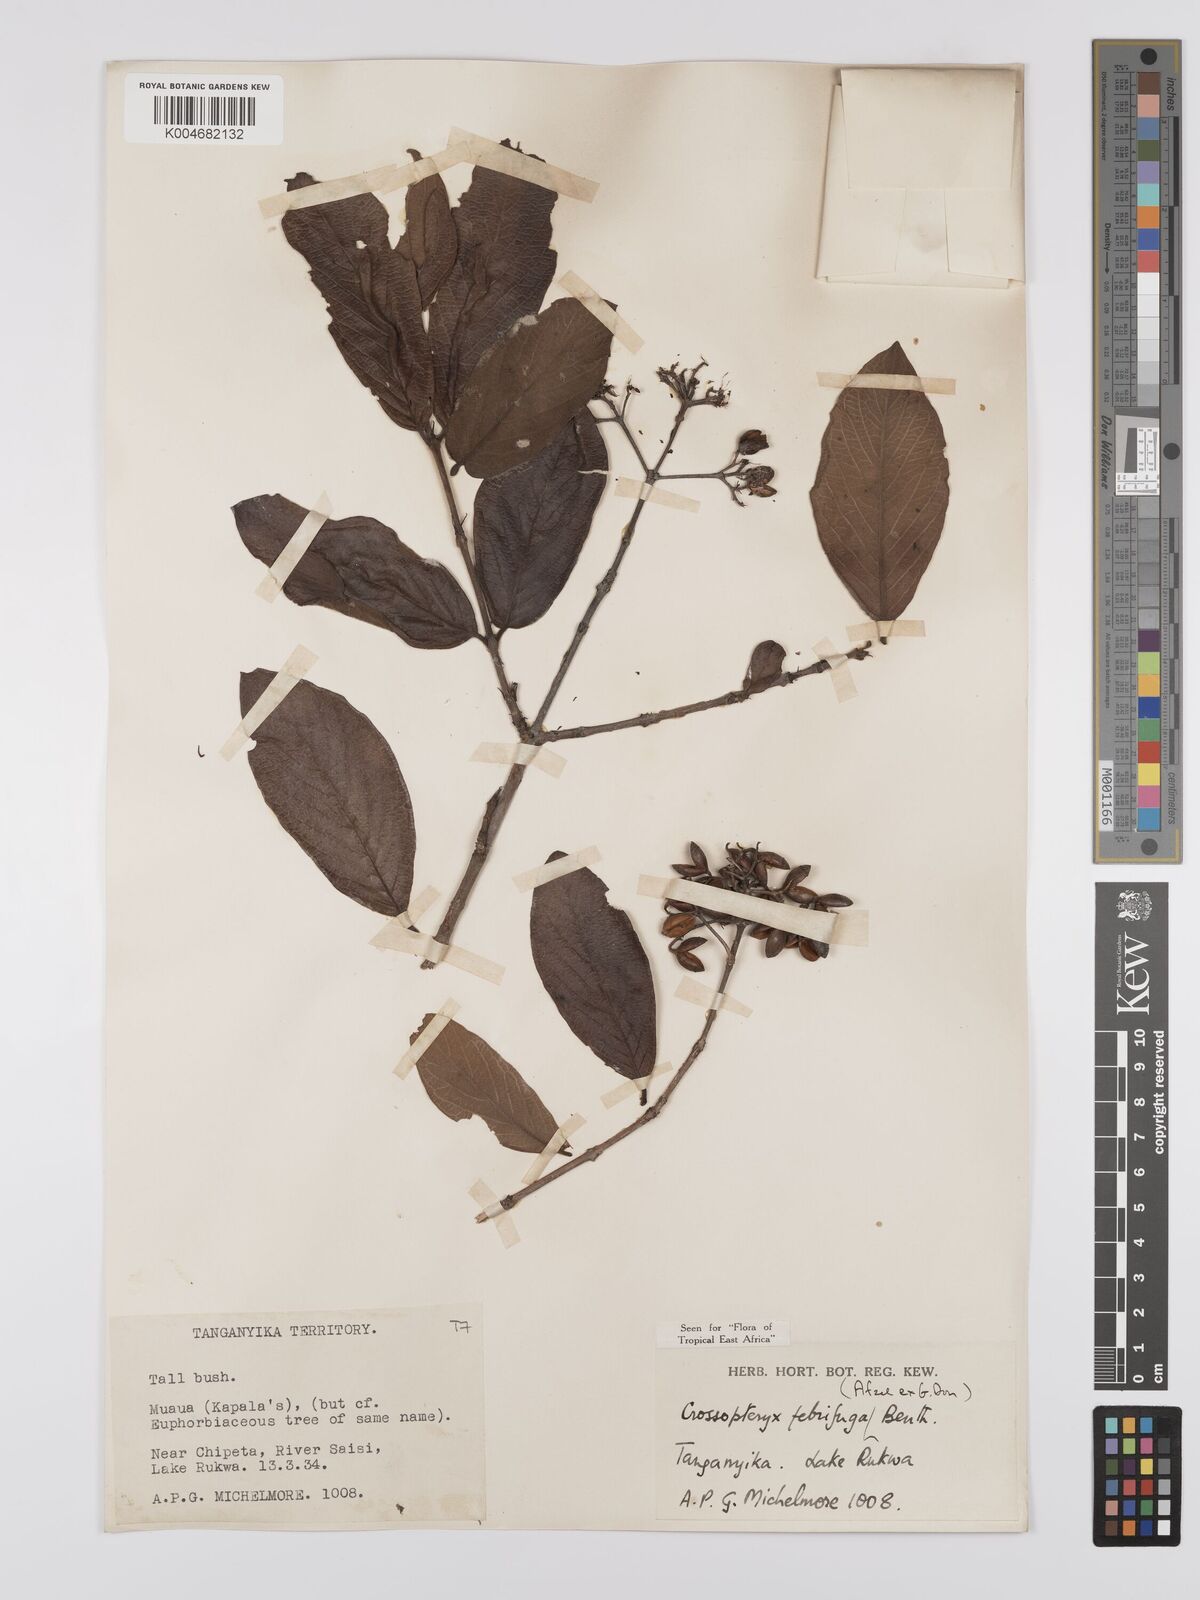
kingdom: Plantae
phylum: Tracheophyta
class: Magnoliopsida
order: Gentianales
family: Rubiaceae
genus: Crossopteryx
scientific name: Crossopteryx febrifuga
